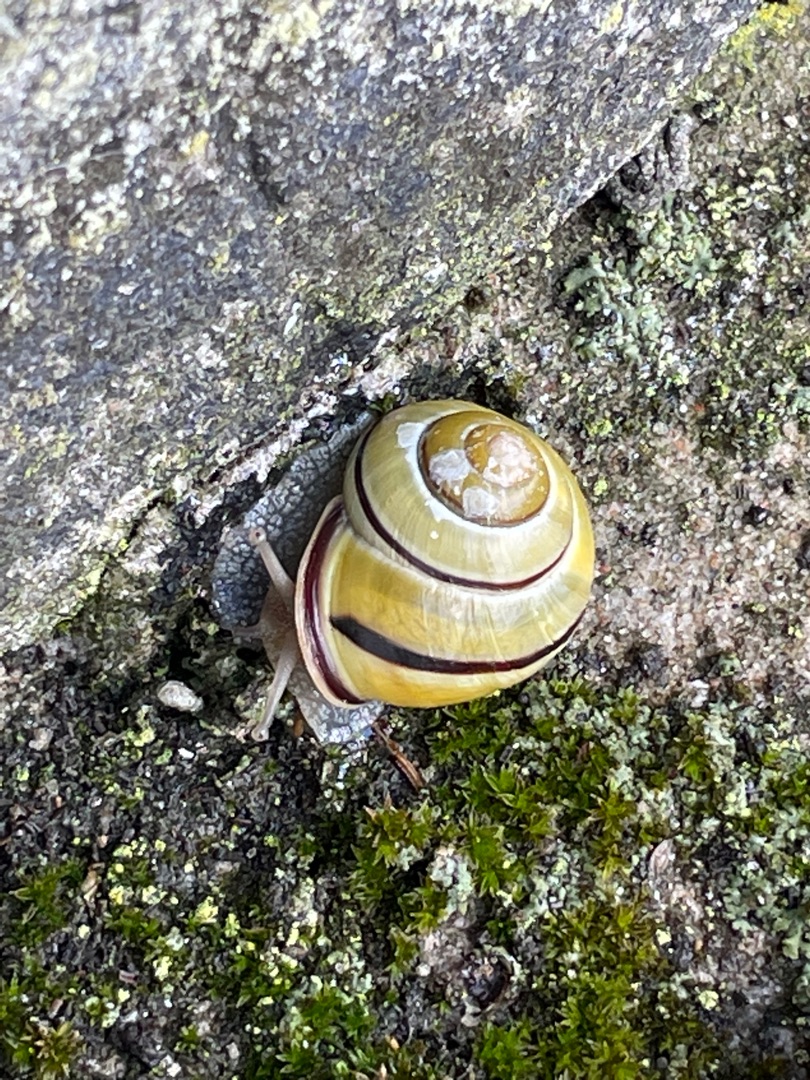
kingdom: Animalia
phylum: Mollusca
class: Gastropoda
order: Stylommatophora
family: Helicidae
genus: Cepaea
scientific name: Cepaea nemoralis
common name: Lundsnegl
